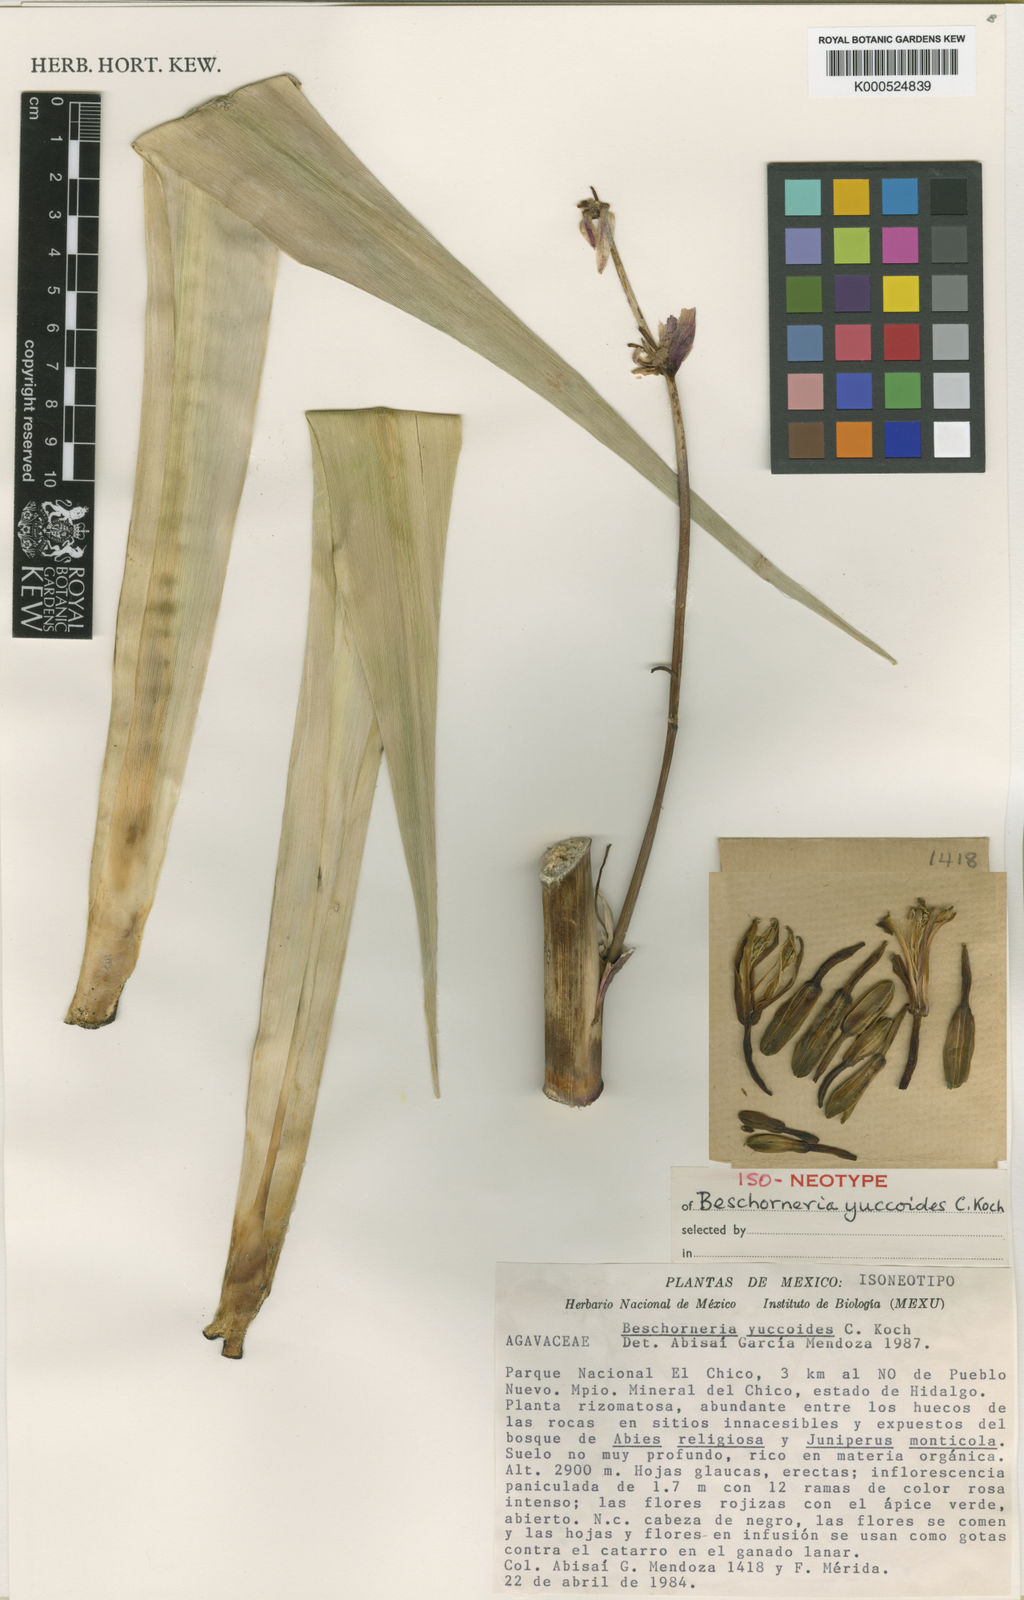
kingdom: Plantae
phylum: Tracheophyta
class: Liliopsida
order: Asparagales
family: Asparagaceae
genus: Beschorneria
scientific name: Beschorneria yuccoides
